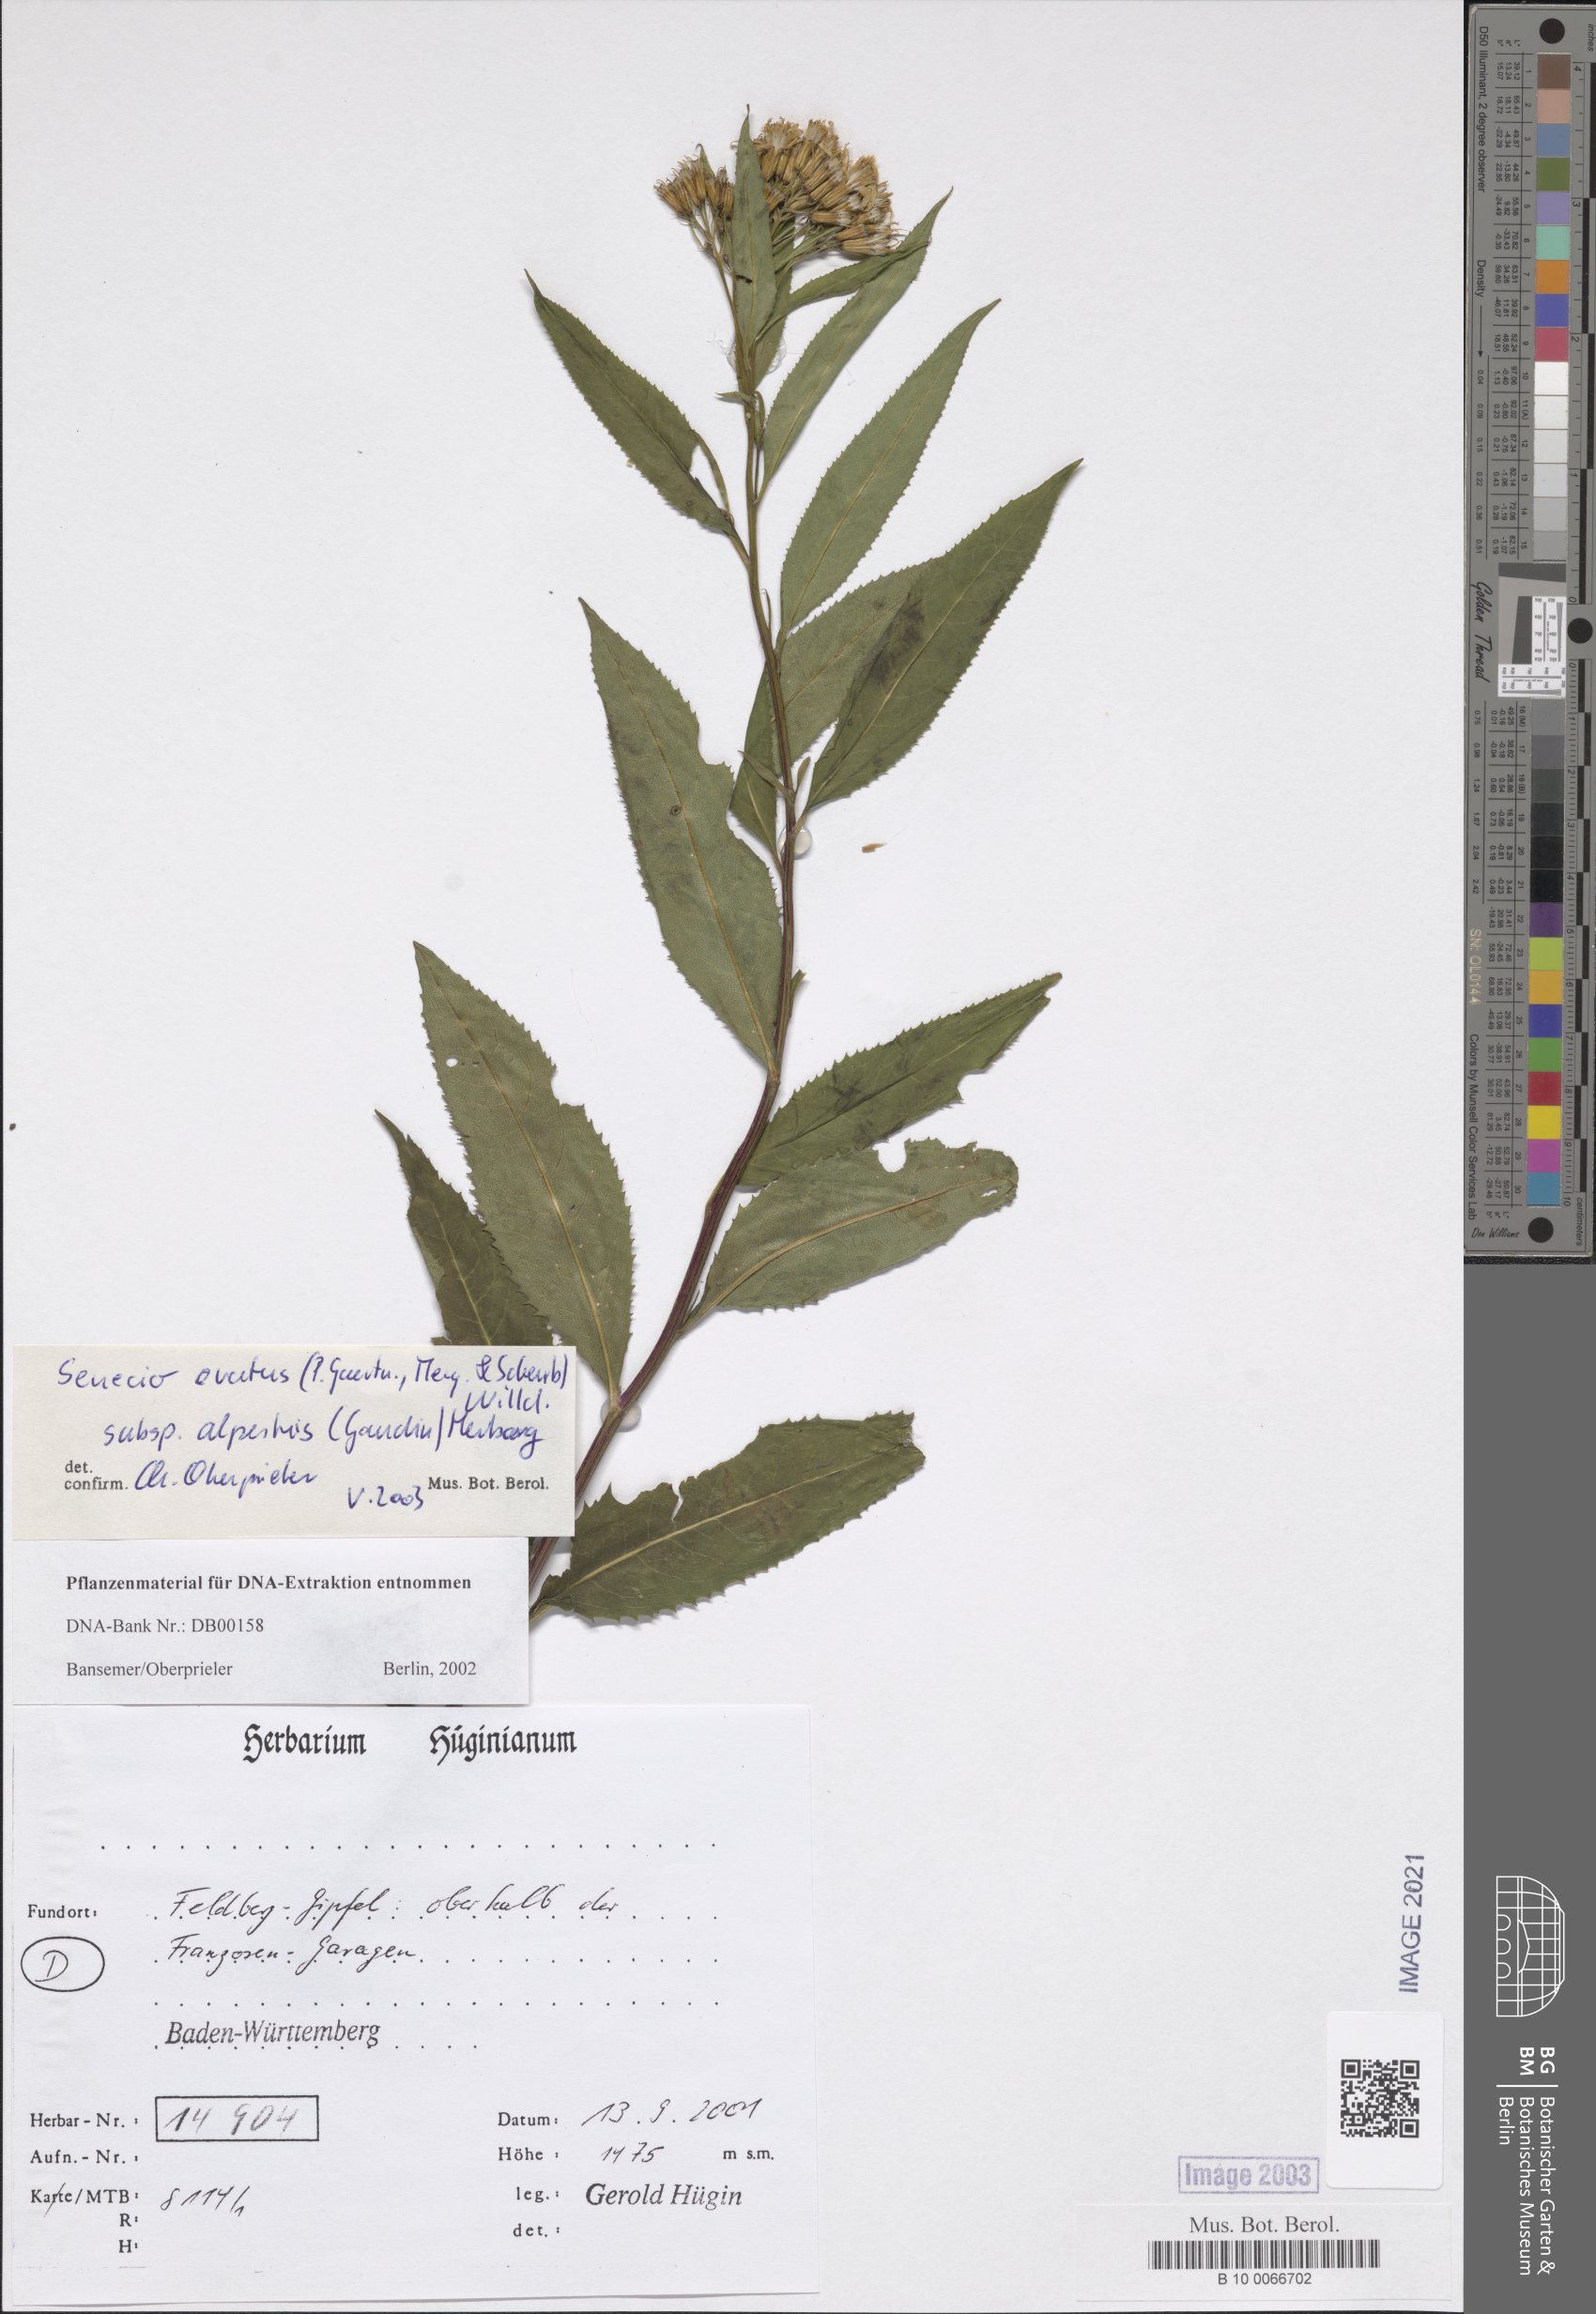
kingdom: Plantae
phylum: Tracheophyta
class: Magnoliopsida
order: Asterales
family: Asteraceae
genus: Senecio
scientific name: Senecio ovatus
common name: Wood ragwort
